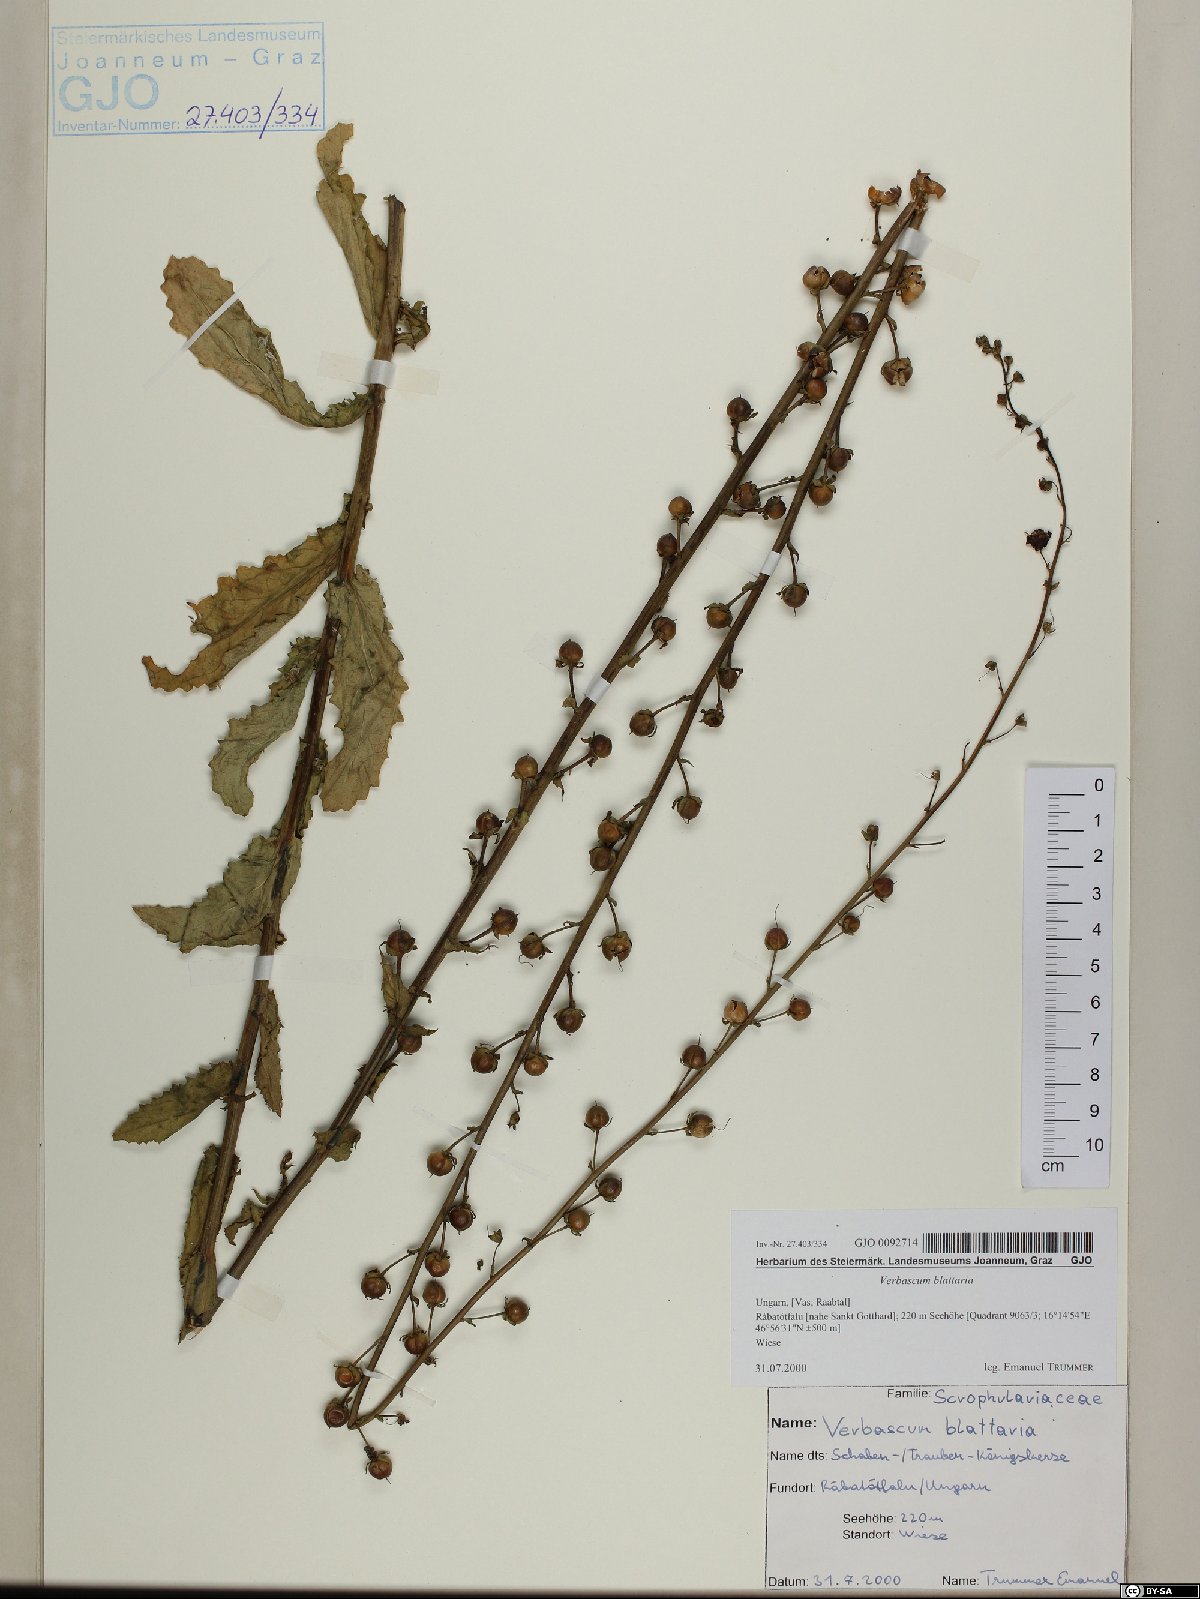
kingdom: Plantae
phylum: Tracheophyta
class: Magnoliopsida
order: Lamiales
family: Scrophulariaceae
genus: Verbascum
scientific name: Verbascum blattaria
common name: Moth mullein
